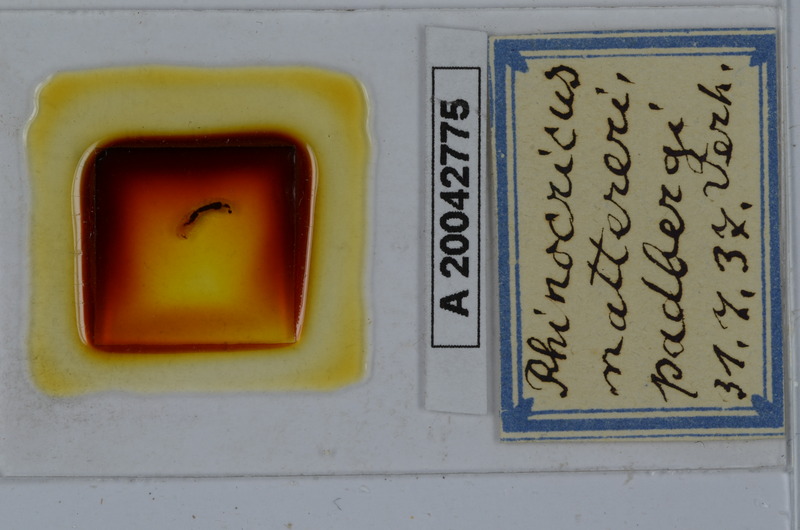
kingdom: Animalia
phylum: Arthropoda
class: Diplopoda
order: Spirobolida
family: Rhinocricidae
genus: Rhinocricus
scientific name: Rhinocricus padbergi
